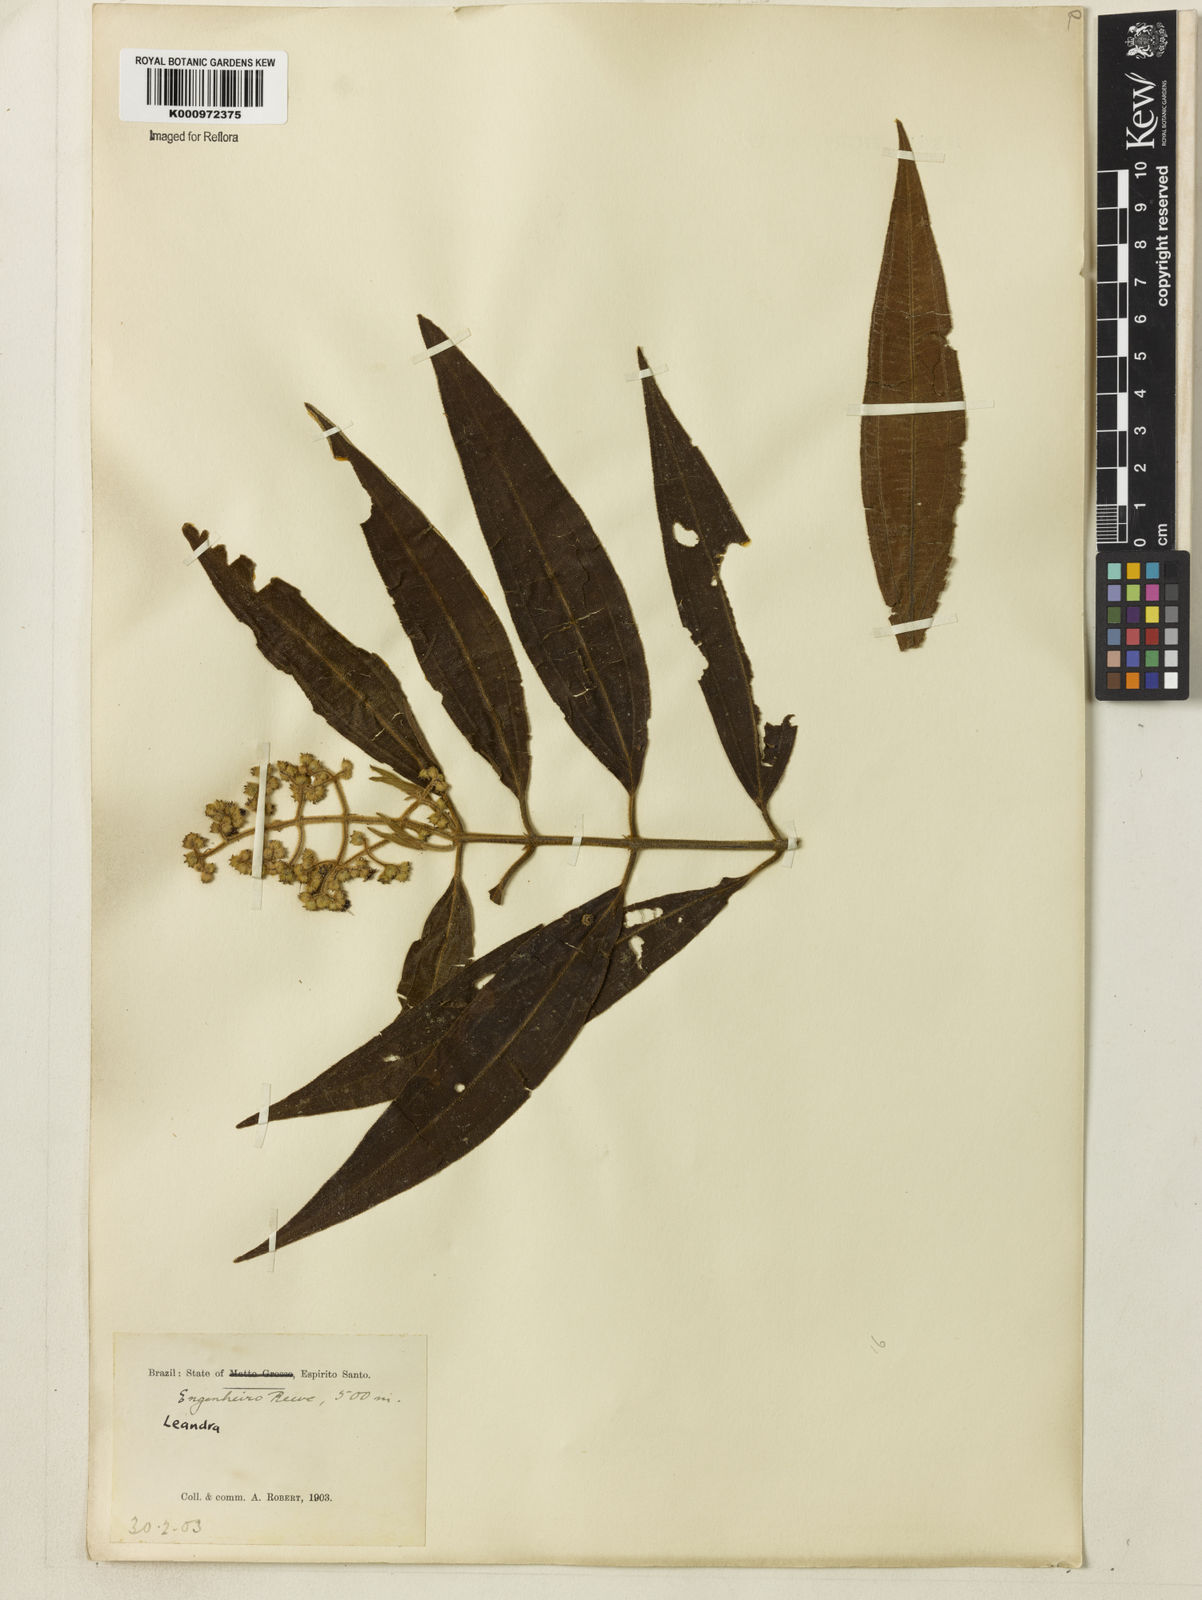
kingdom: Plantae
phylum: Tracheophyta
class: Magnoliopsida
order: Myrtales
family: Melastomataceae
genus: Miconia
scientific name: Miconia
